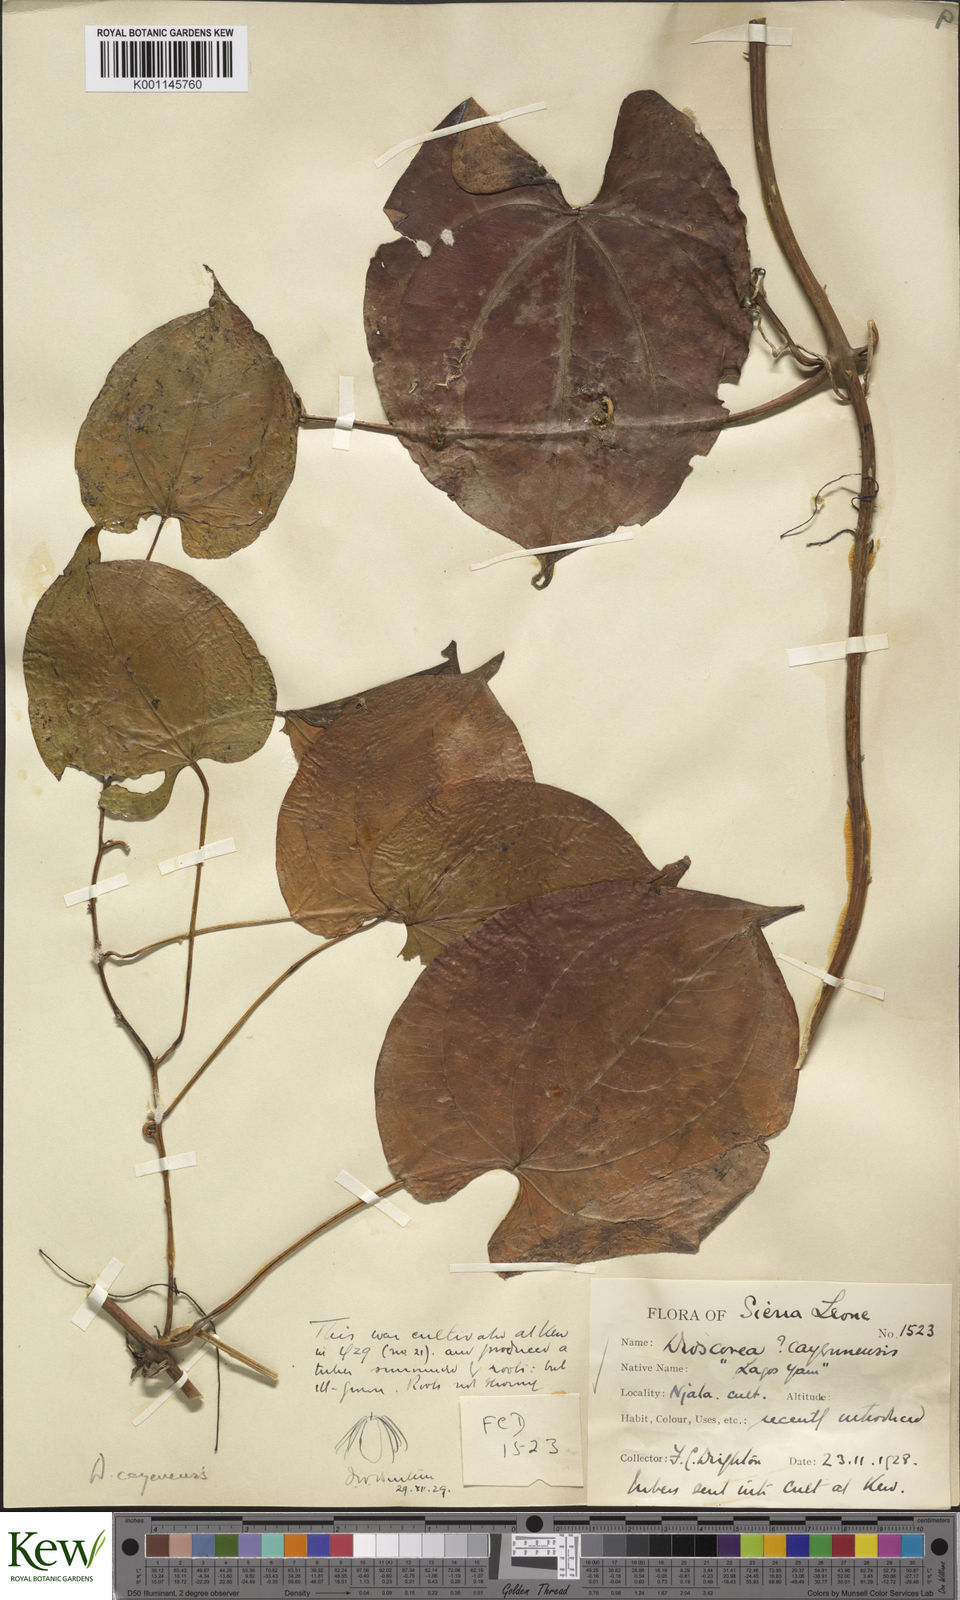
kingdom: Plantae
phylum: Tracheophyta
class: Liliopsida
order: Dioscoreales
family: Dioscoreaceae
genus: Dioscorea
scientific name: Dioscorea cayenensis
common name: Attoto yam
